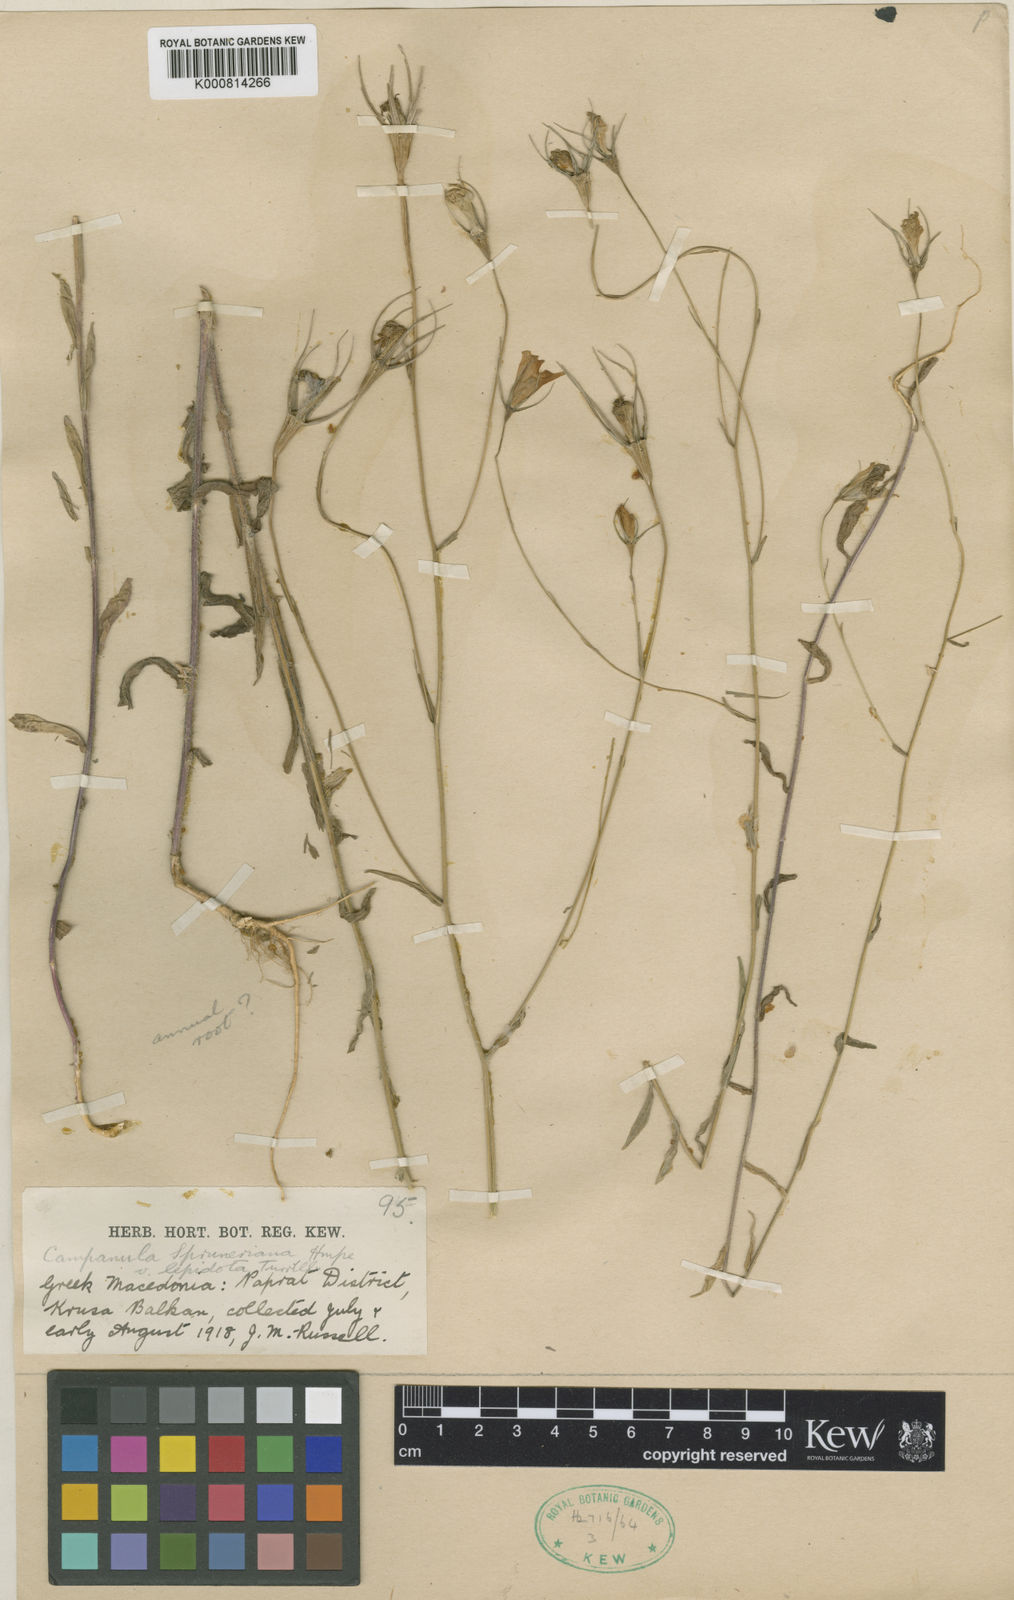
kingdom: Plantae
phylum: Tracheophyta
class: Magnoliopsida
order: Asterales
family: Campanulaceae
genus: Campanula
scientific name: Campanula trichopoda
